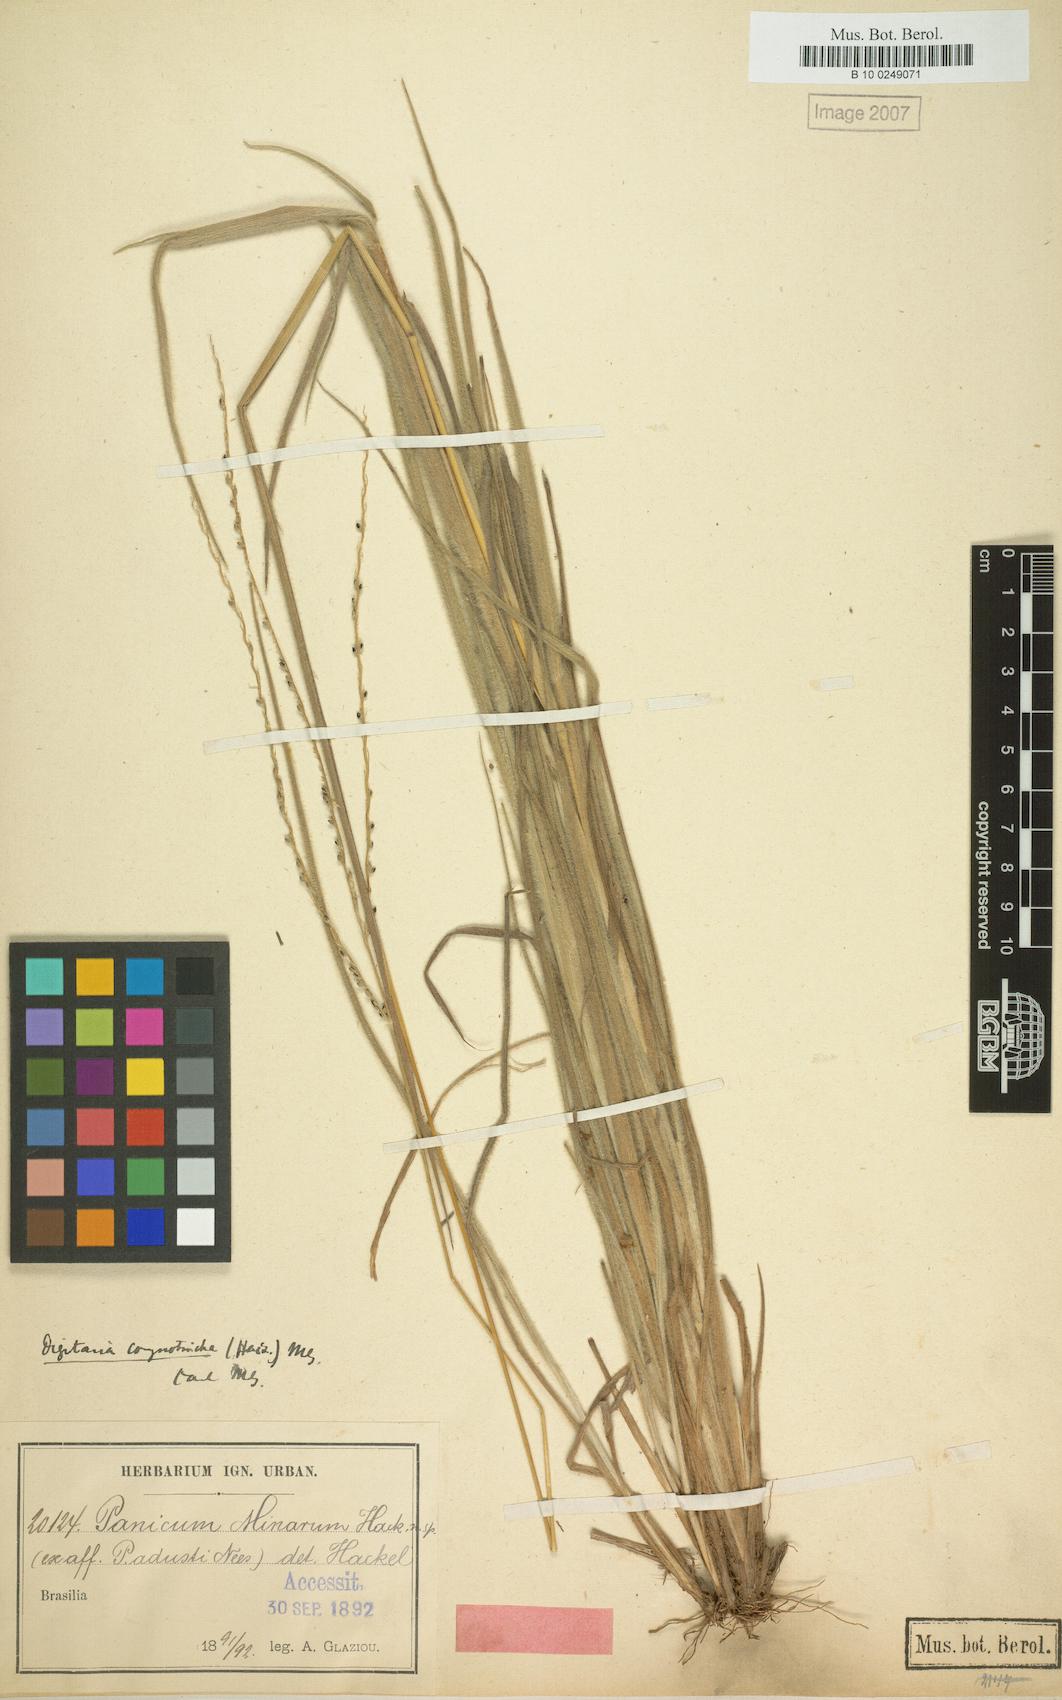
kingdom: Plantae
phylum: Tracheophyta
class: Liliopsida
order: Poales
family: Poaceae
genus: Digitaria
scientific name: Digitaria corynotricha
